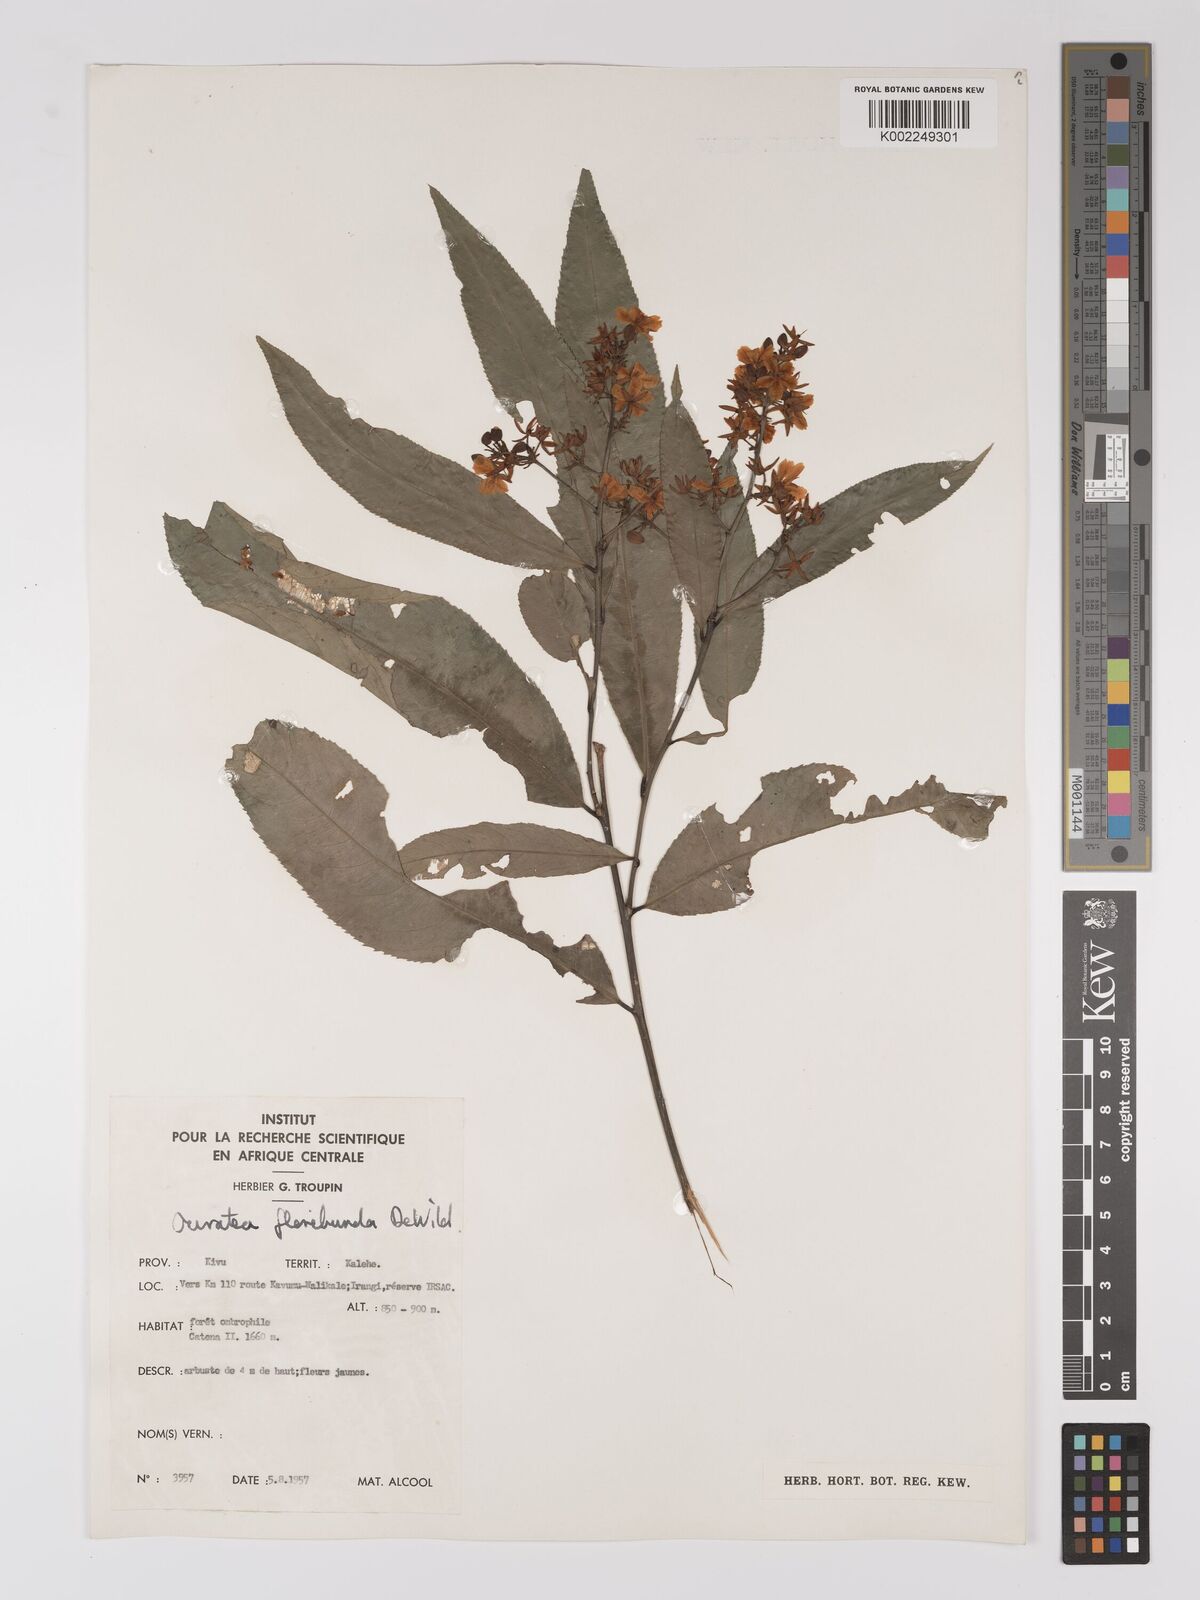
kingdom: Plantae
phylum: Tracheophyta
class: Magnoliopsida
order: Malpighiales
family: Ochnaceae
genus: Campylospermum
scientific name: Campylospermum likimiense
